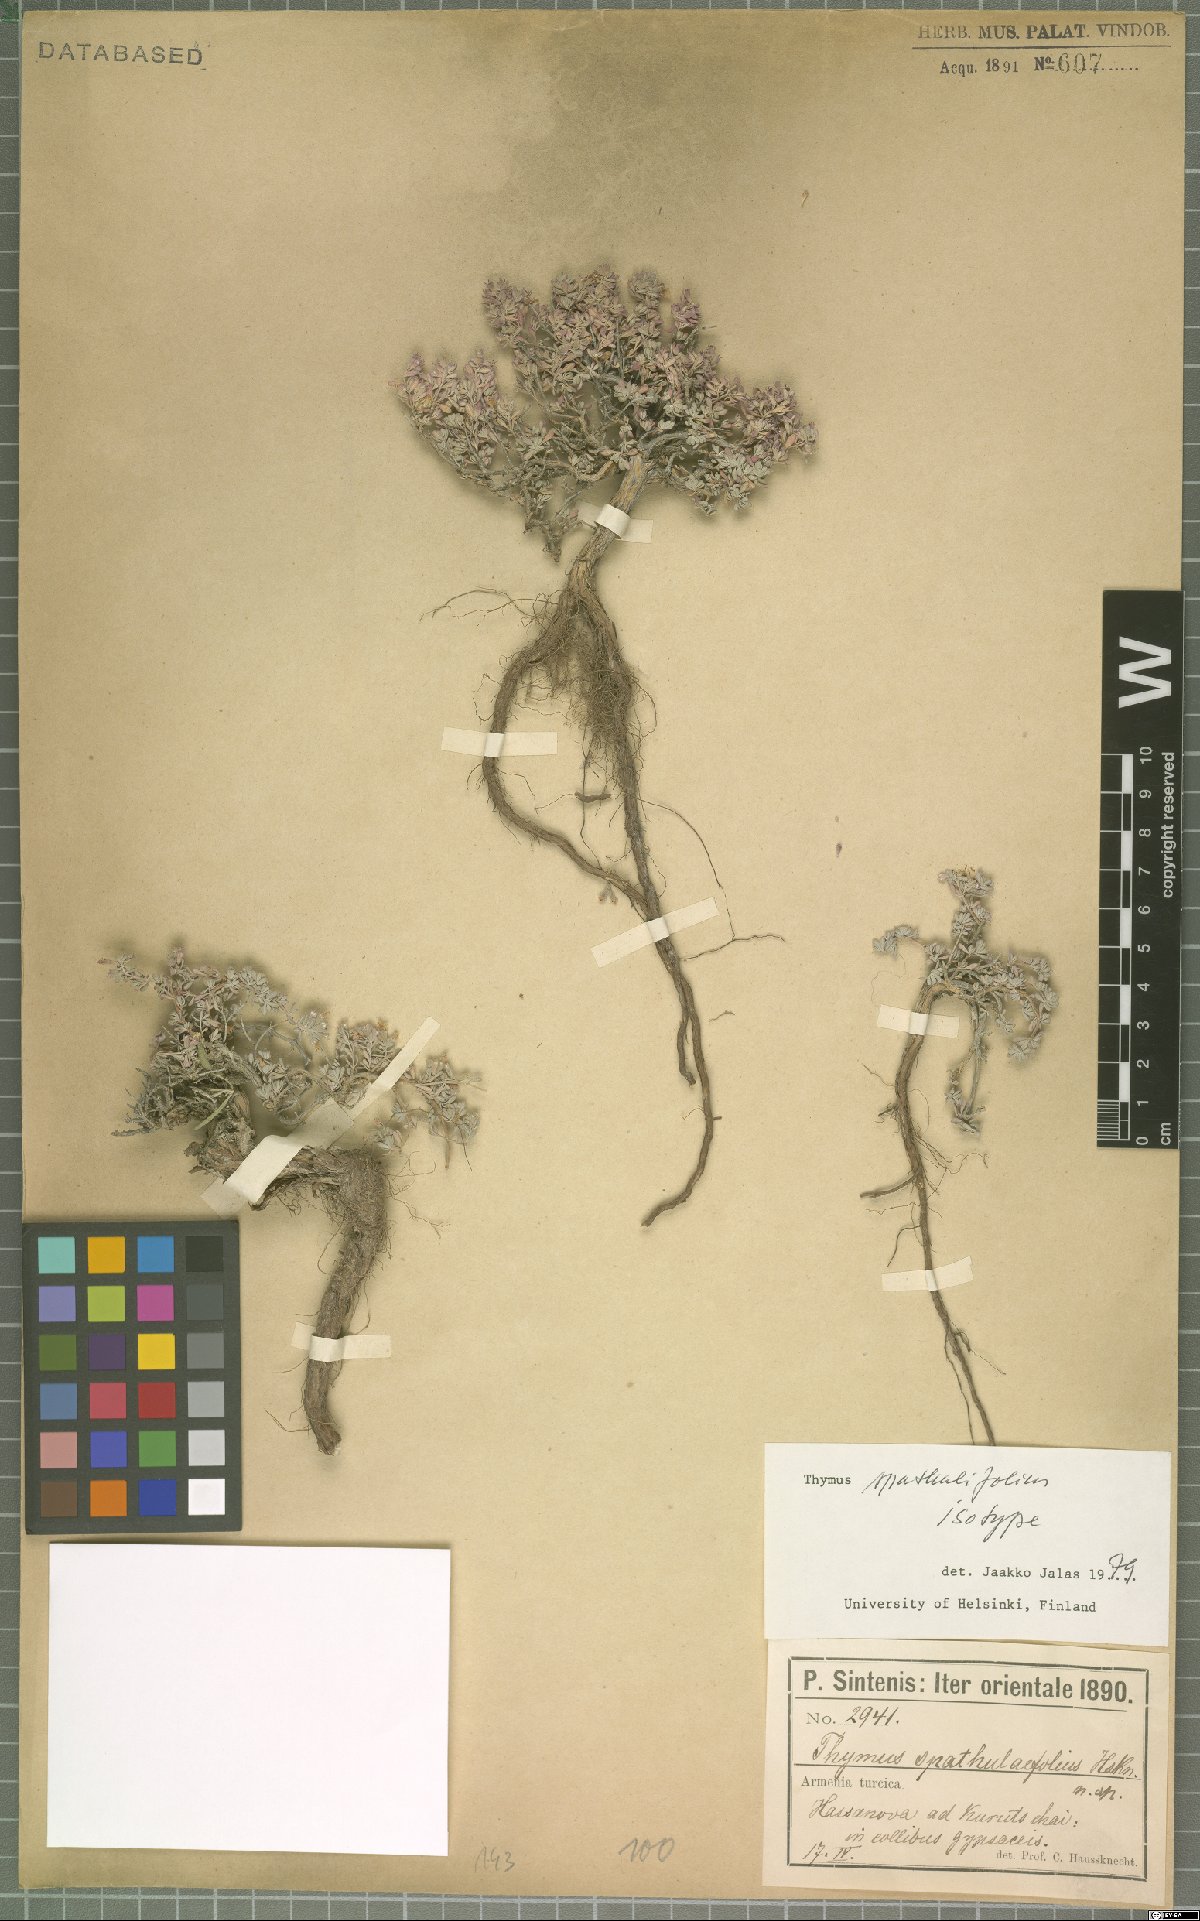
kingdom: Plantae
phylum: Tracheophyta
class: Magnoliopsida
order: Lamiales
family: Lamiaceae
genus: Thymus
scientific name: Thymus spathulifolius
